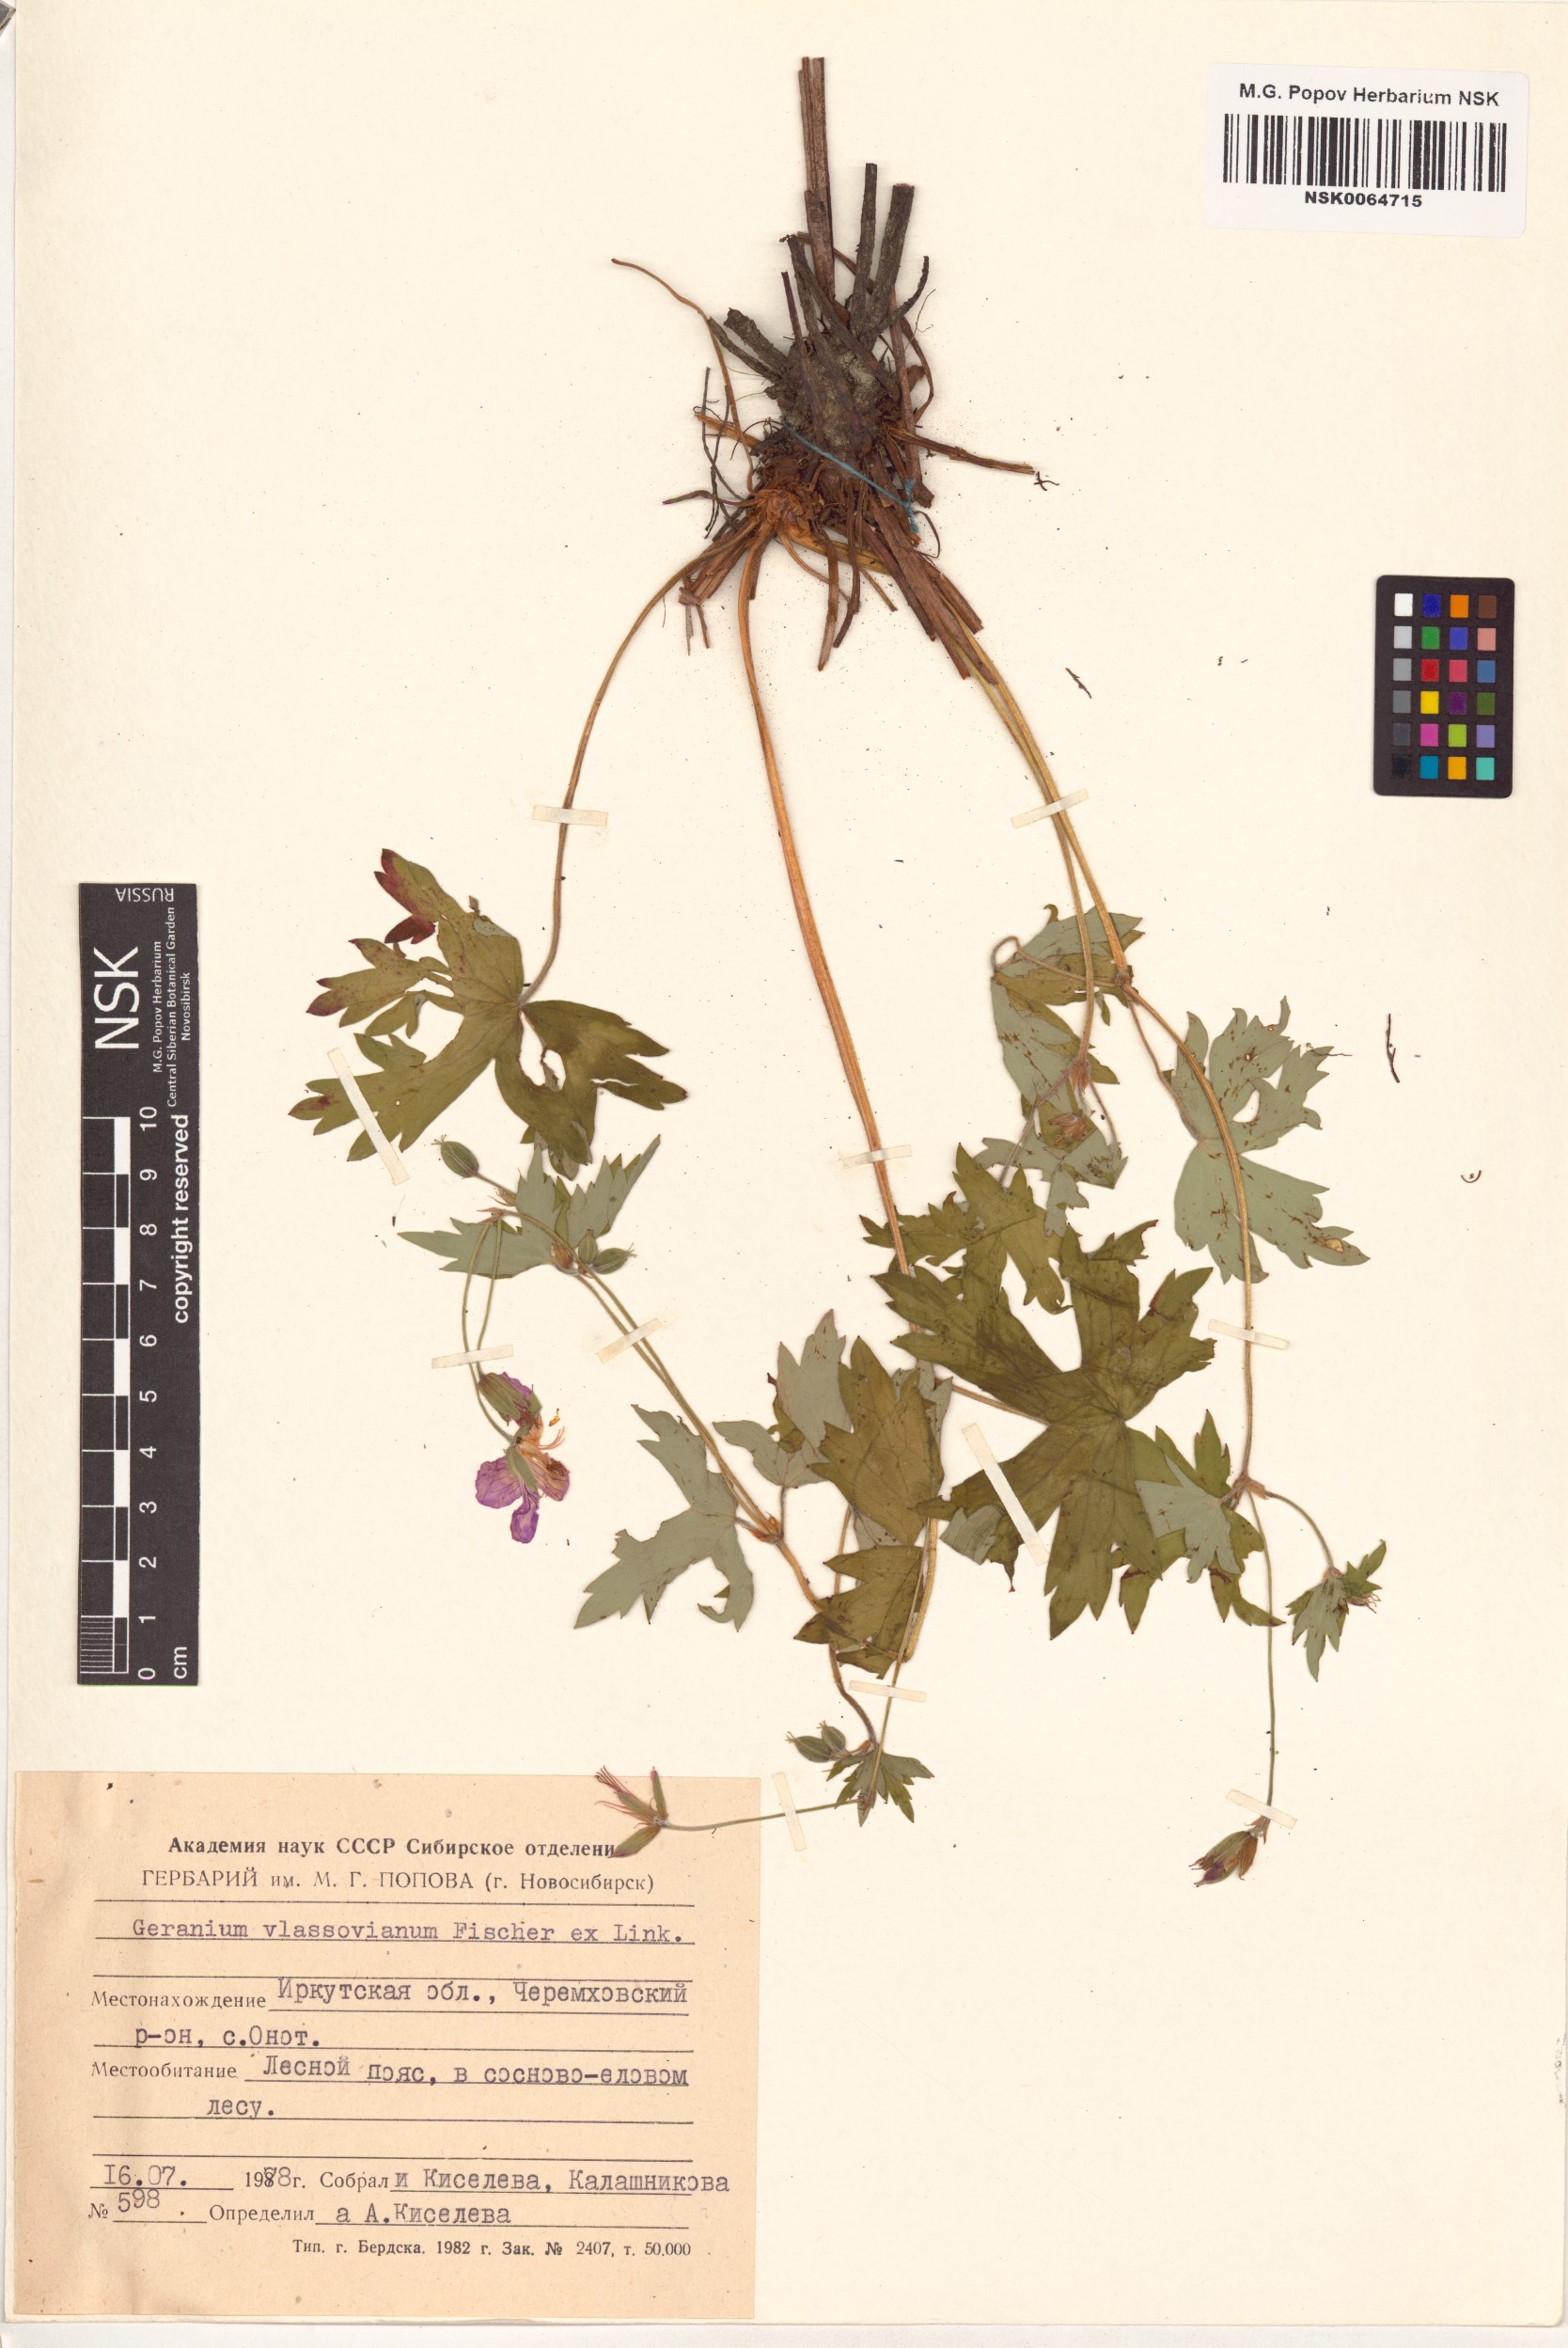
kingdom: Plantae
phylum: Tracheophyta
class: Magnoliopsida
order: Geraniales
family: Geraniaceae
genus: Geranium
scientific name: Geranium wlassovianum
